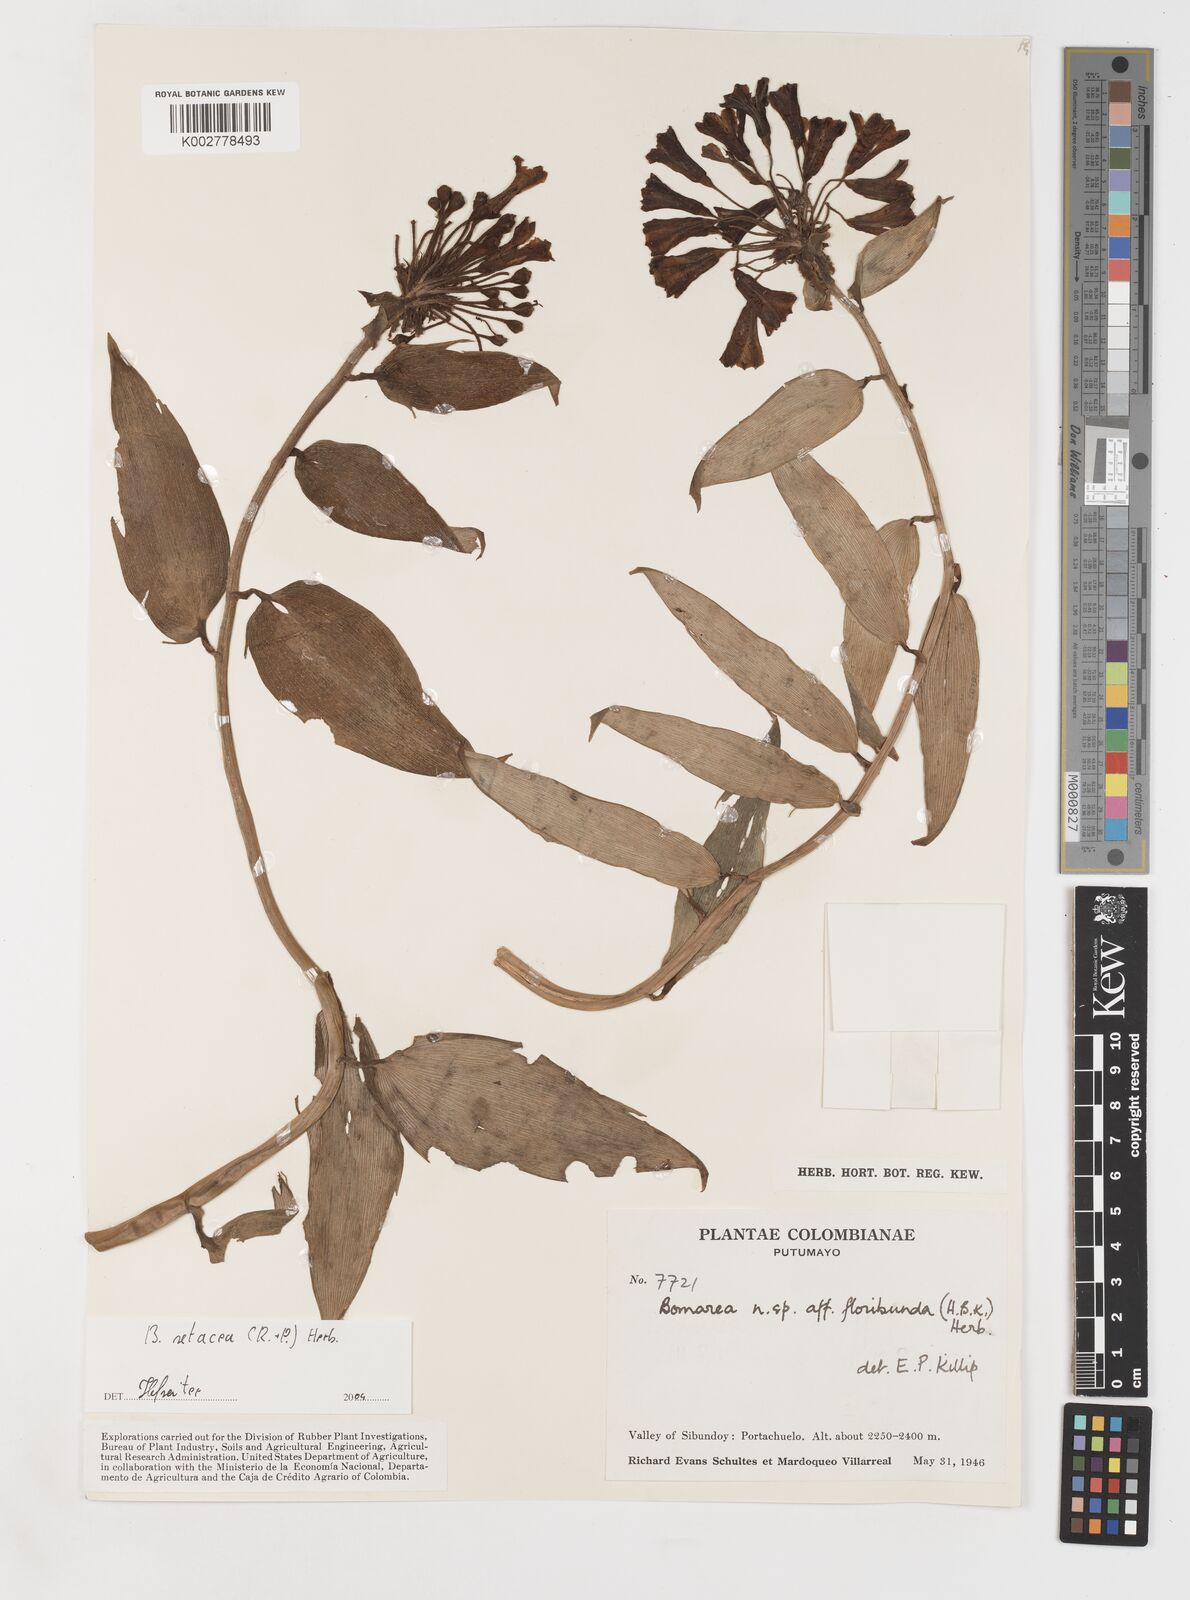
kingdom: Plantae
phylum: Tracheophyta
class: Liliopsida
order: Liliales
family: Alstroemeriaceae
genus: Bomarea
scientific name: Bomarea setacea
